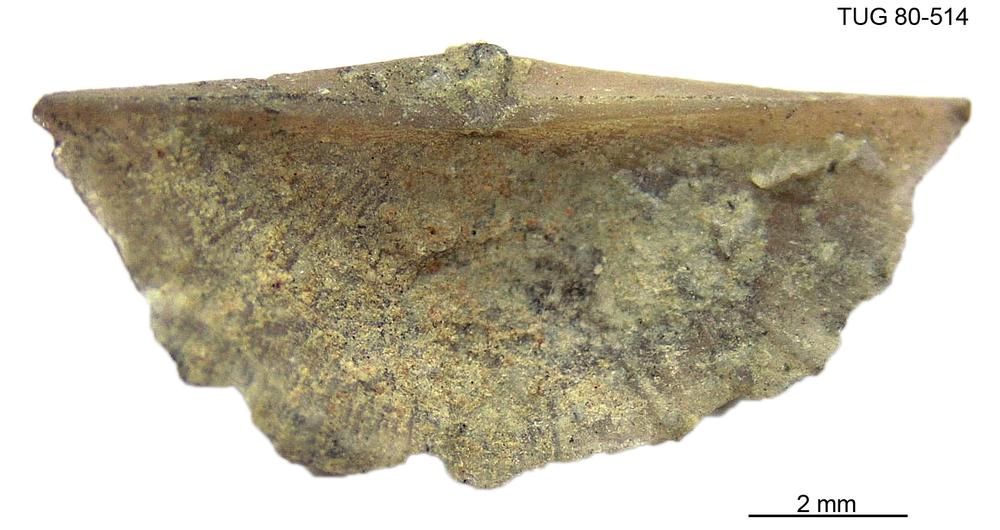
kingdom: Animalia
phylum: Brachiopoda
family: Sowerbyellidae
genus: Sowerbyella
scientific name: Sowerbyella
